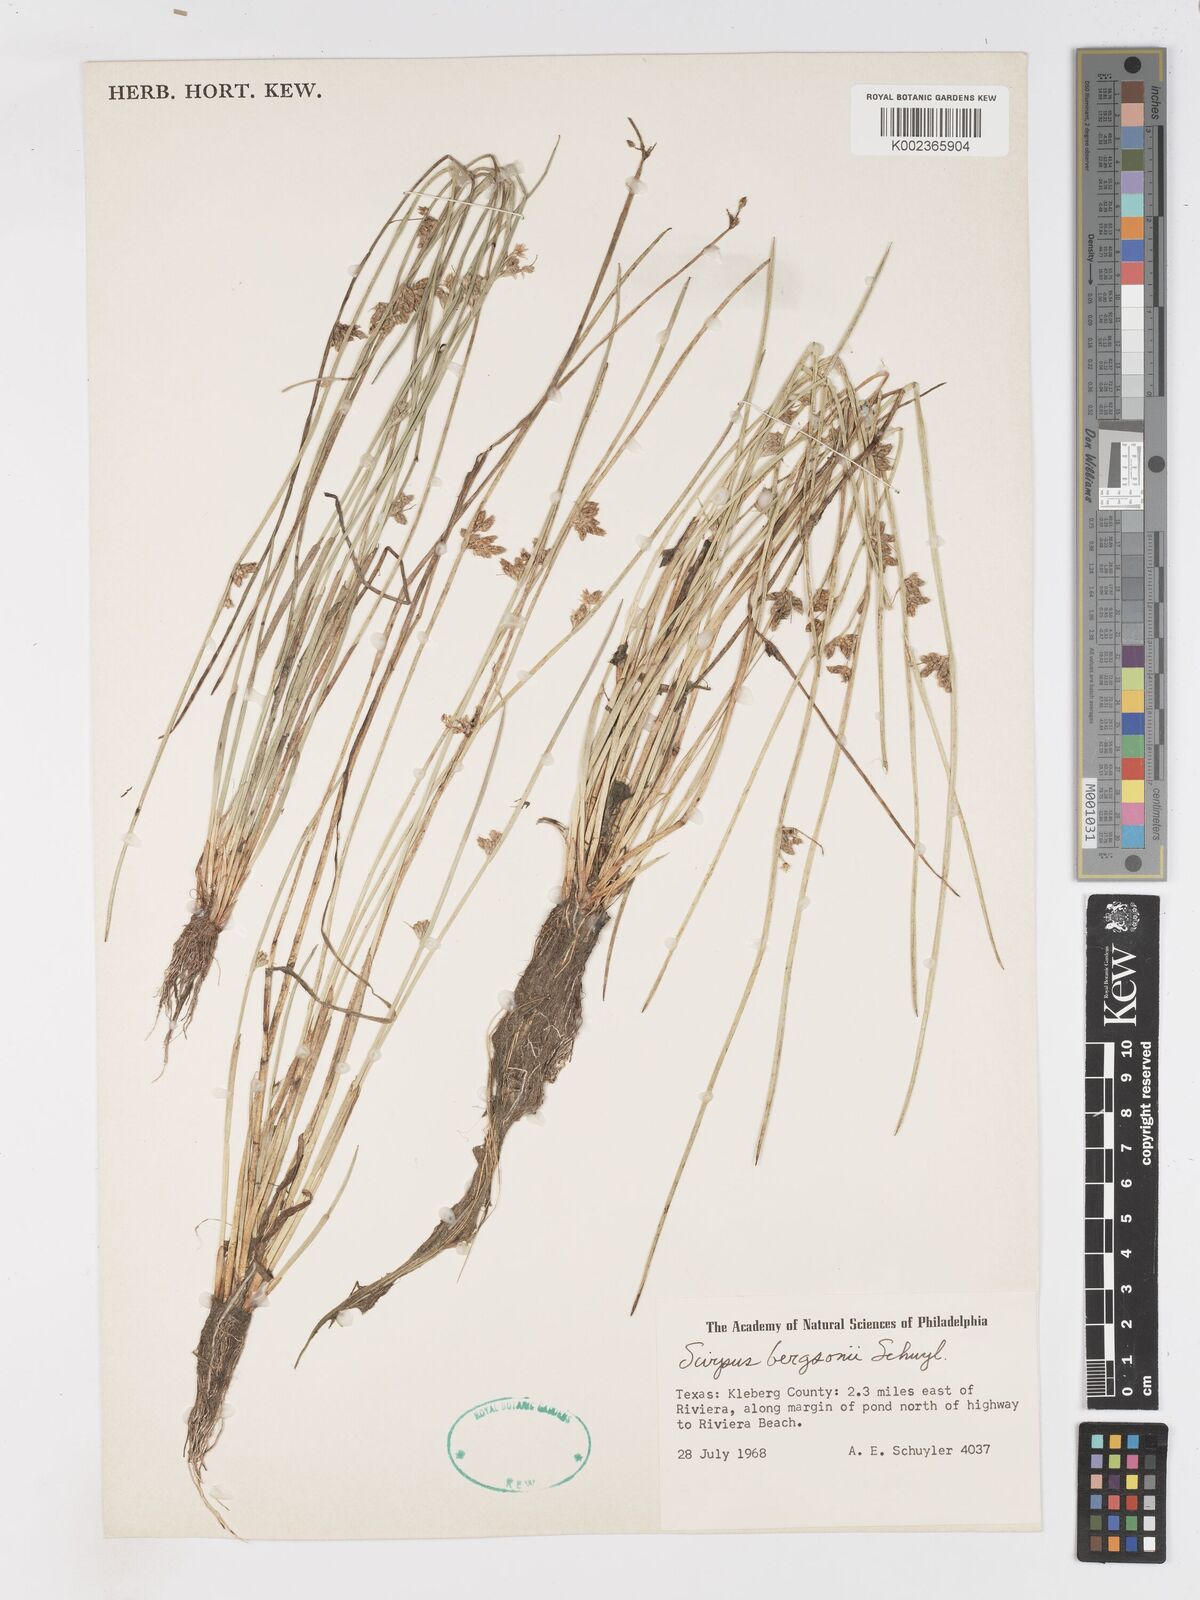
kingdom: Plantae
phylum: Tracheophyta
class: Liliopsida
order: Poales
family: Cyperaceae
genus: Schoenoplectiella
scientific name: Schoenoplectiella saximontana
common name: Rocky mountain clubrush
